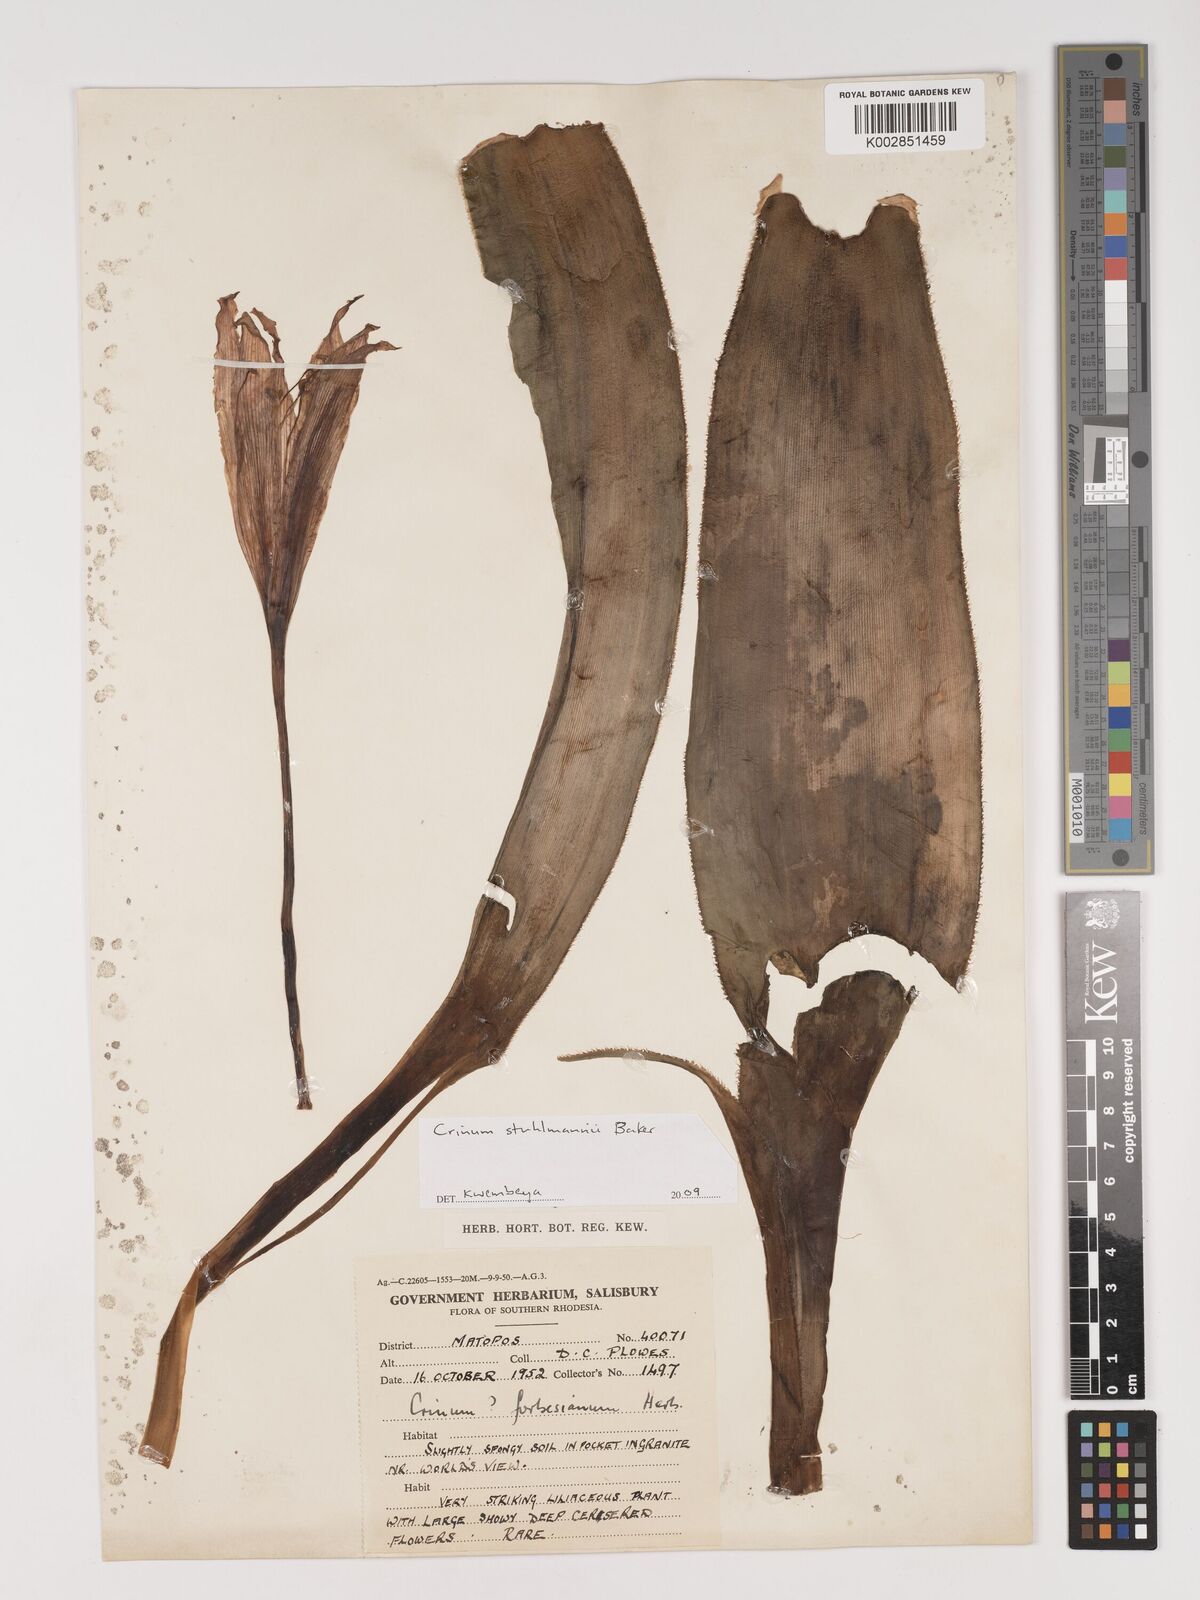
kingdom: Plantae
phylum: Tracheophyta
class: Liliopsida
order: Asparagales
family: Amaryllidaceae
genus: Crinum
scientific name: Crinum stuhlmannii
